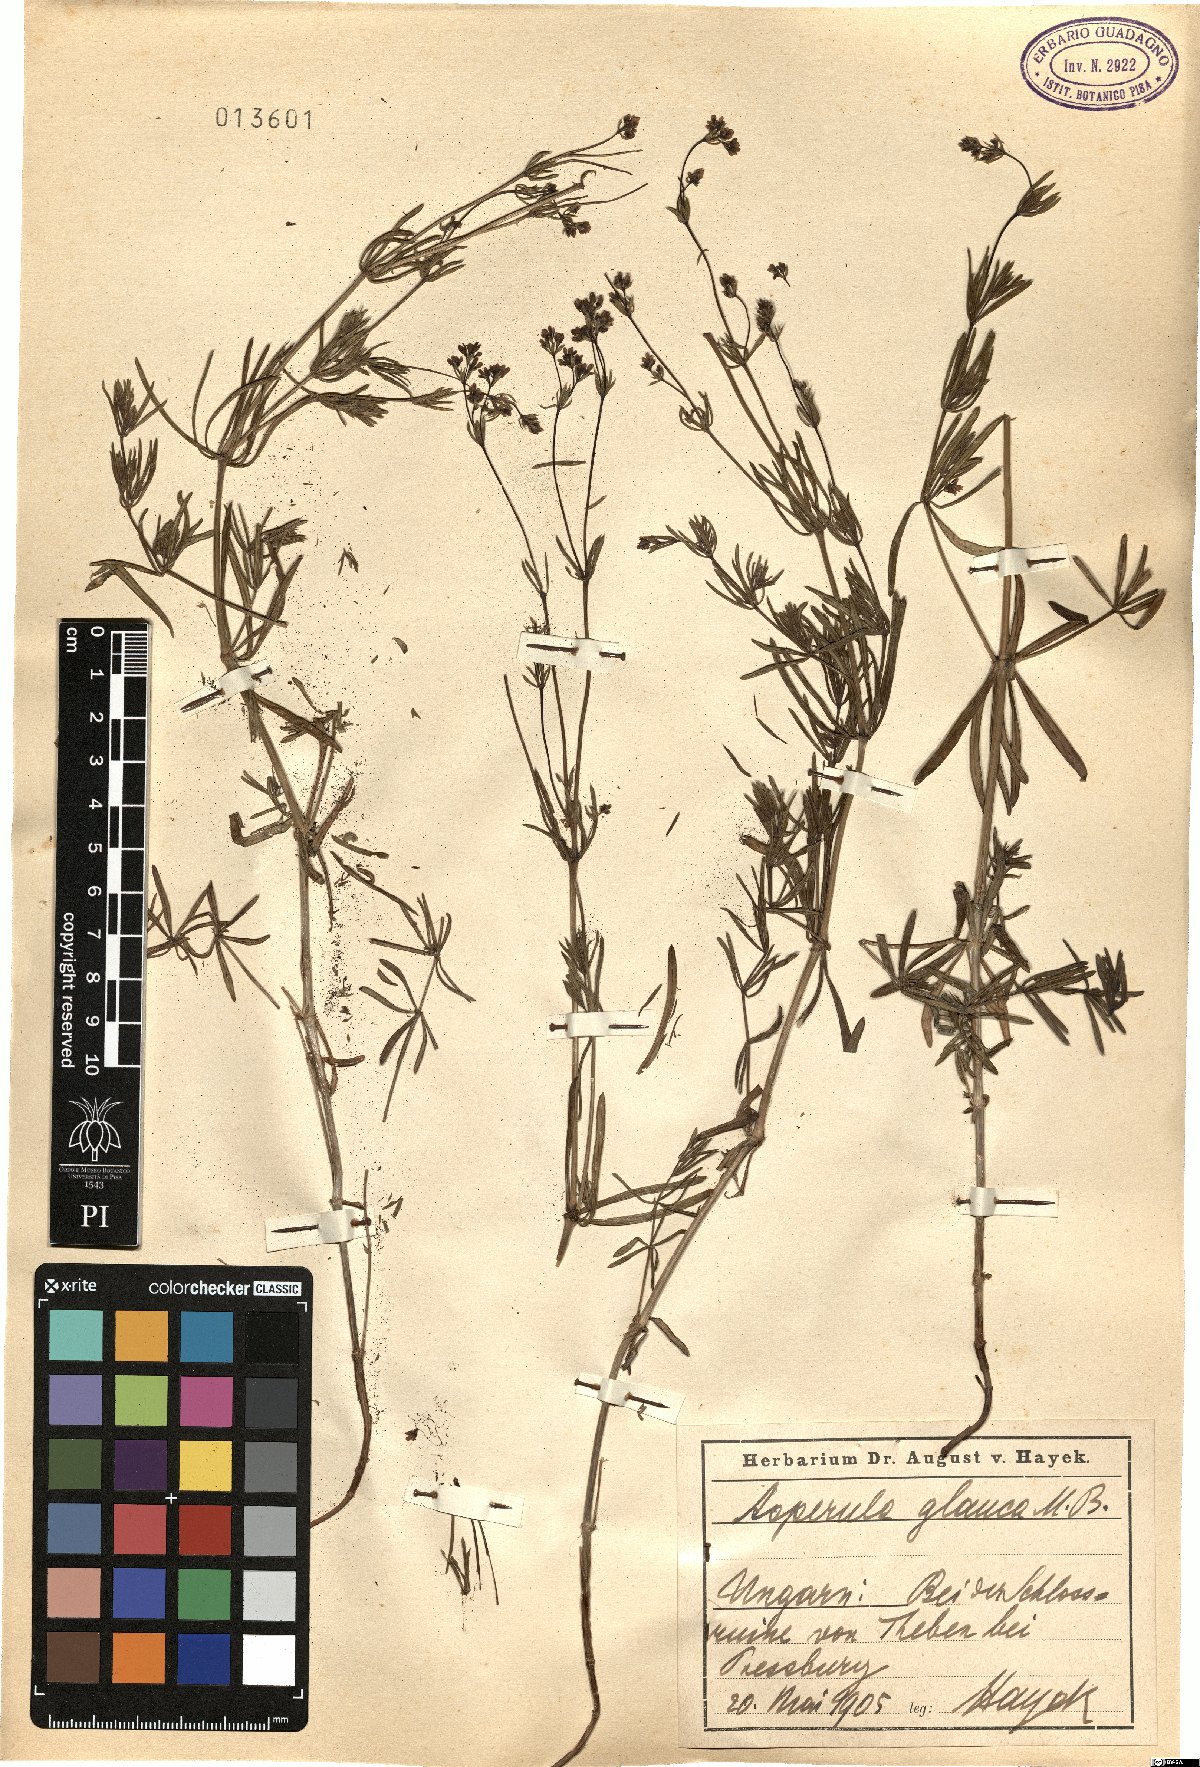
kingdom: Plantae
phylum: Tracheophyta
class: Magnoliopsida
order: Gentianales
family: Rubiaceae
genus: Galium
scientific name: Galium glaucum
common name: Waxy bedstraw
